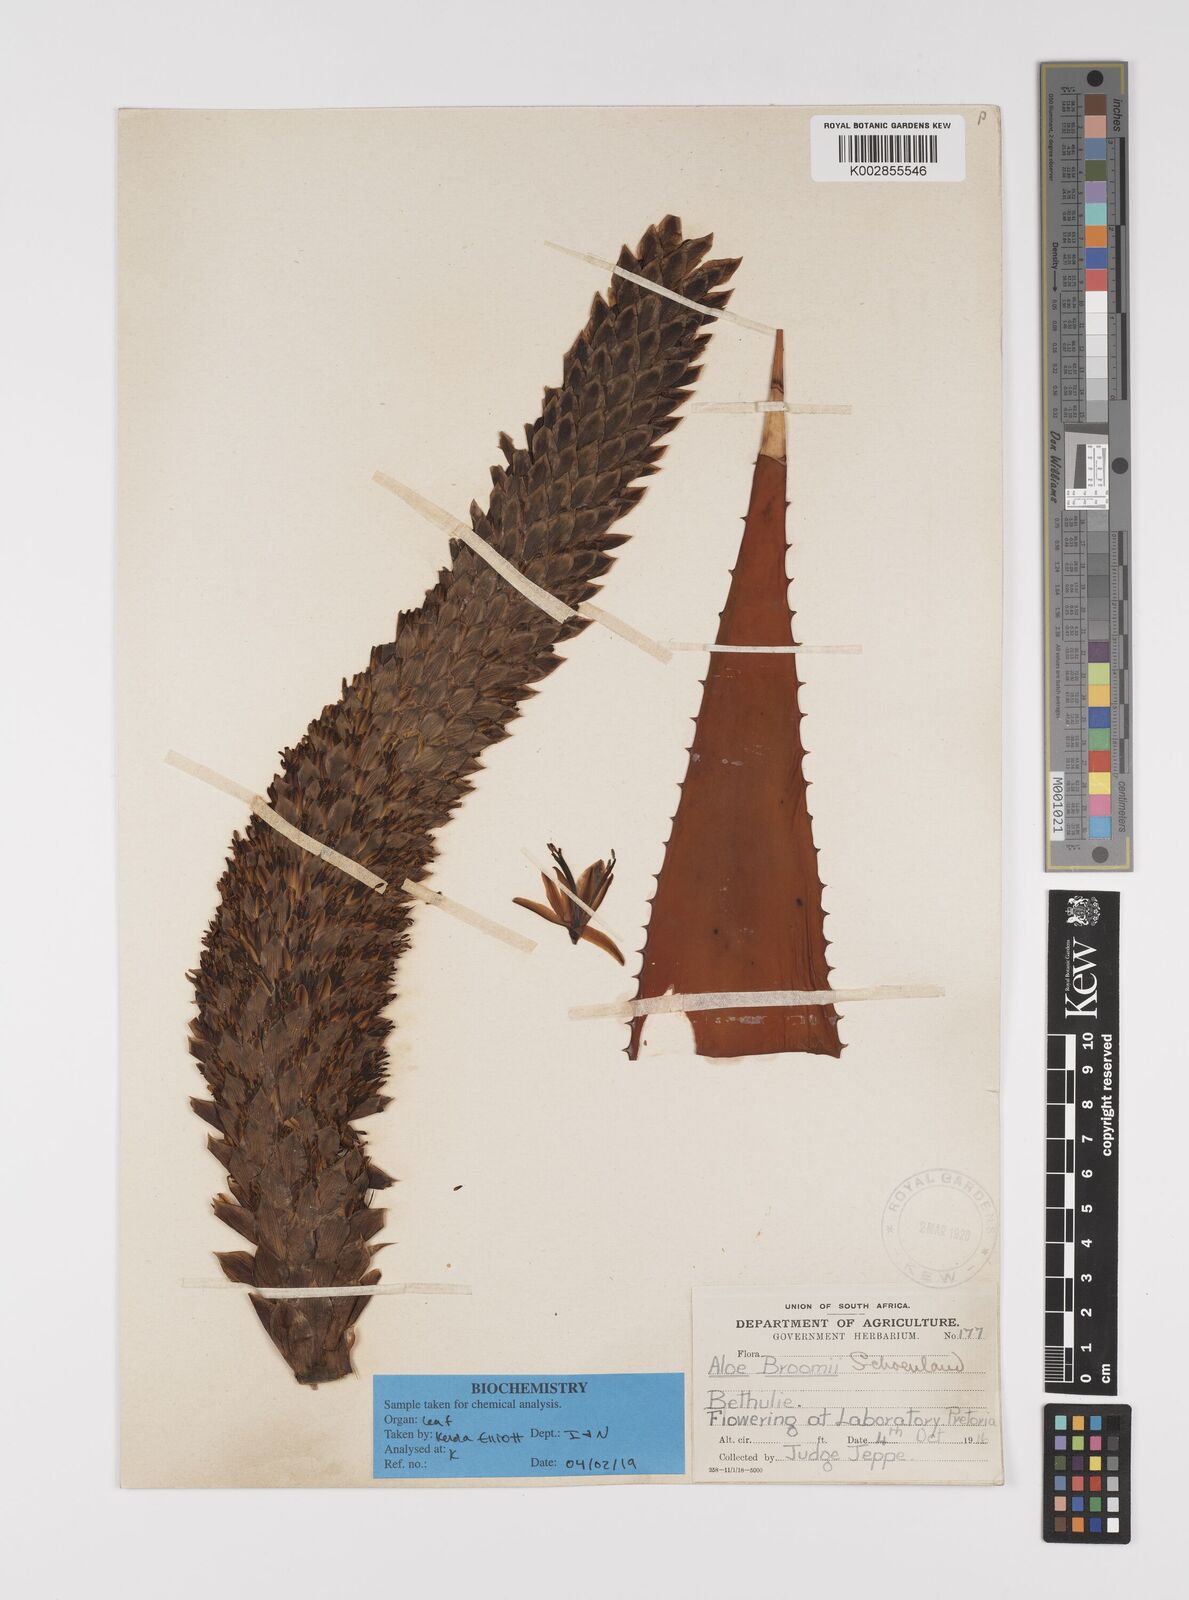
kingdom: Plantae
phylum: Tracheophyta
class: Liliopsida
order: Asparagales
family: Asphodelaceae
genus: Aloe
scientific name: Aloe broomii
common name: Berg alwyn
